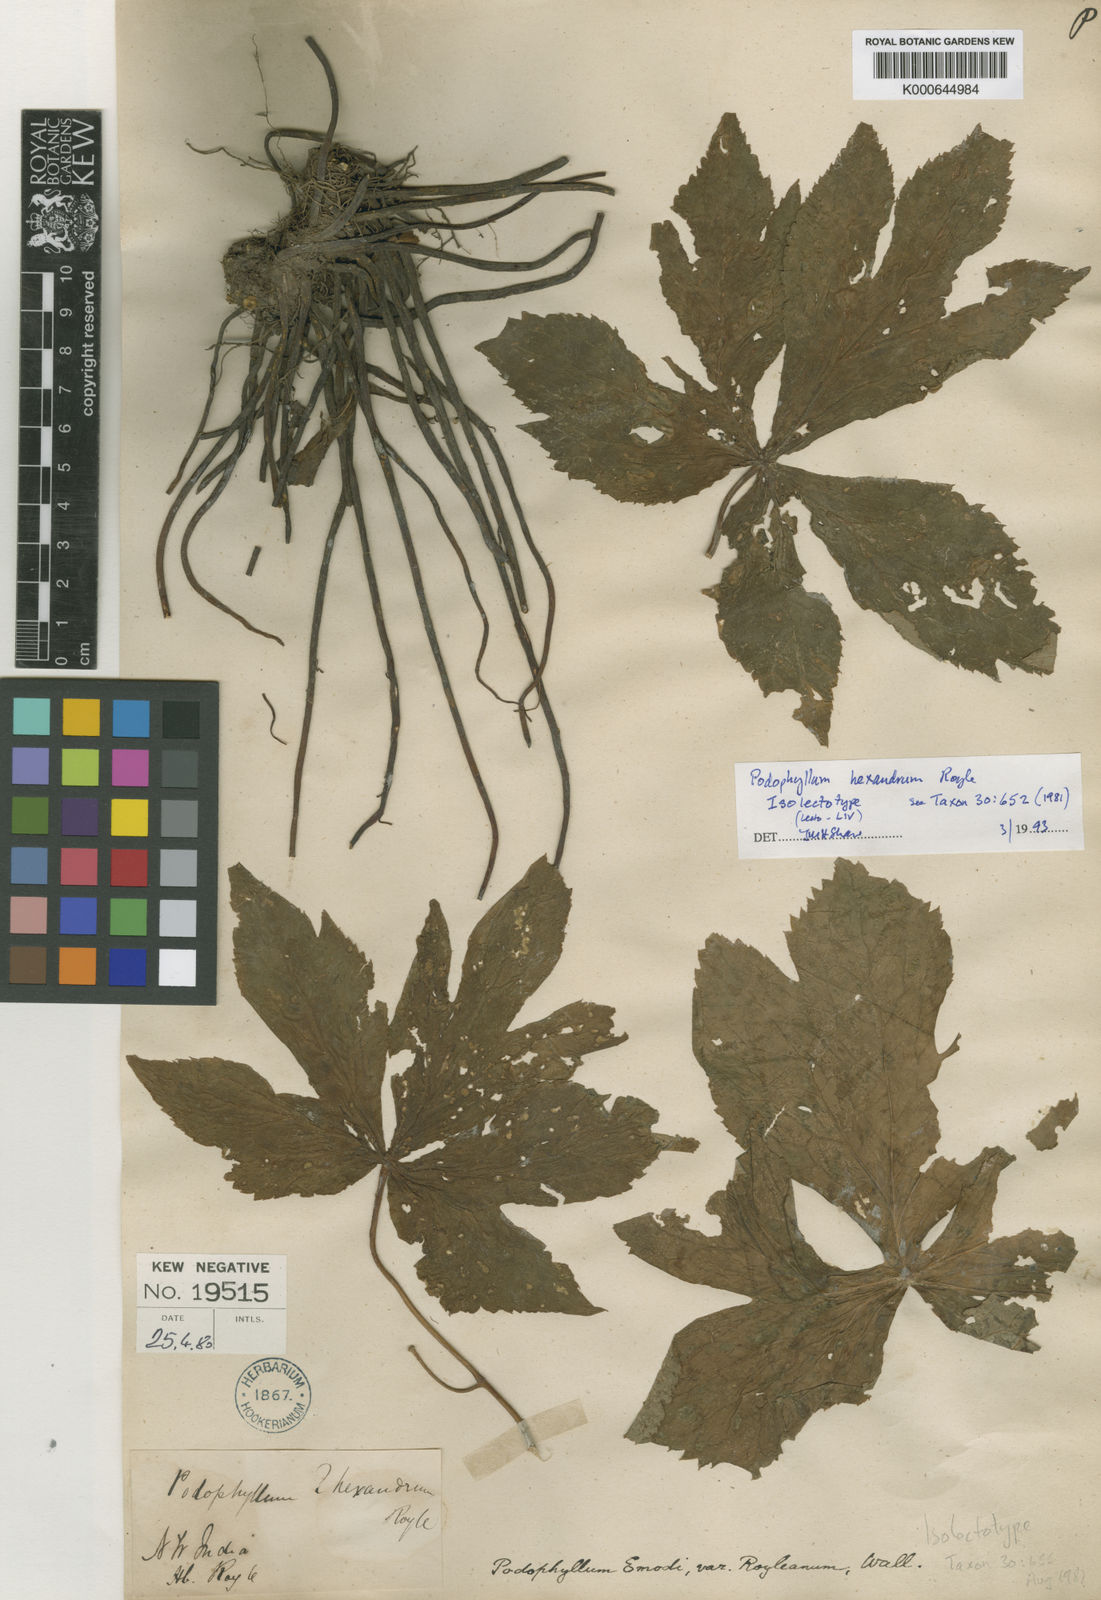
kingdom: Plantae
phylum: Tracheophyta
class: Magnoliopsida
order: Ranunculales
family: Berberidaceae
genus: Sinopodophyllum
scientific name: Sinopodophyllum hexandrum
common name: Himalayan may-apple
